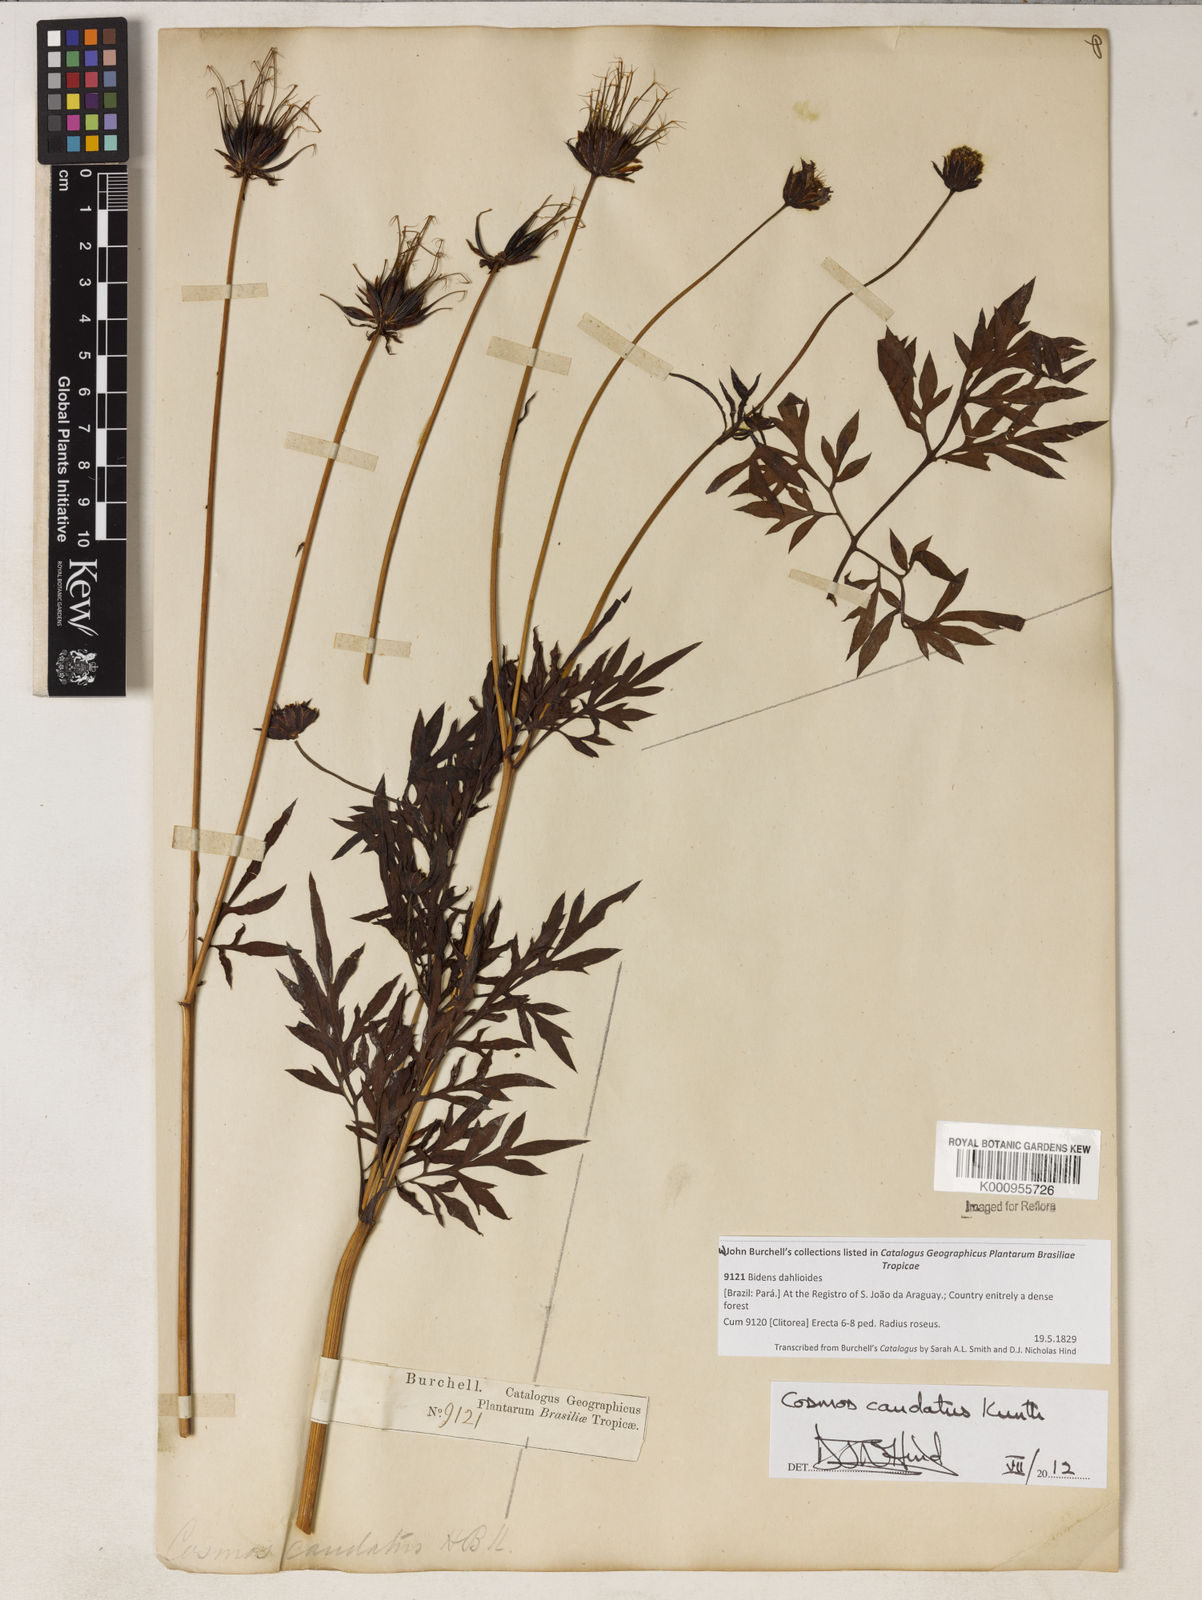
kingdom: Plantae
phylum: Tracheophyta
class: Magnoliopsida
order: Asterales
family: Asteraceae
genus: Cosmos
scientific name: Cosmos caudatus
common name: Wild cosmos
